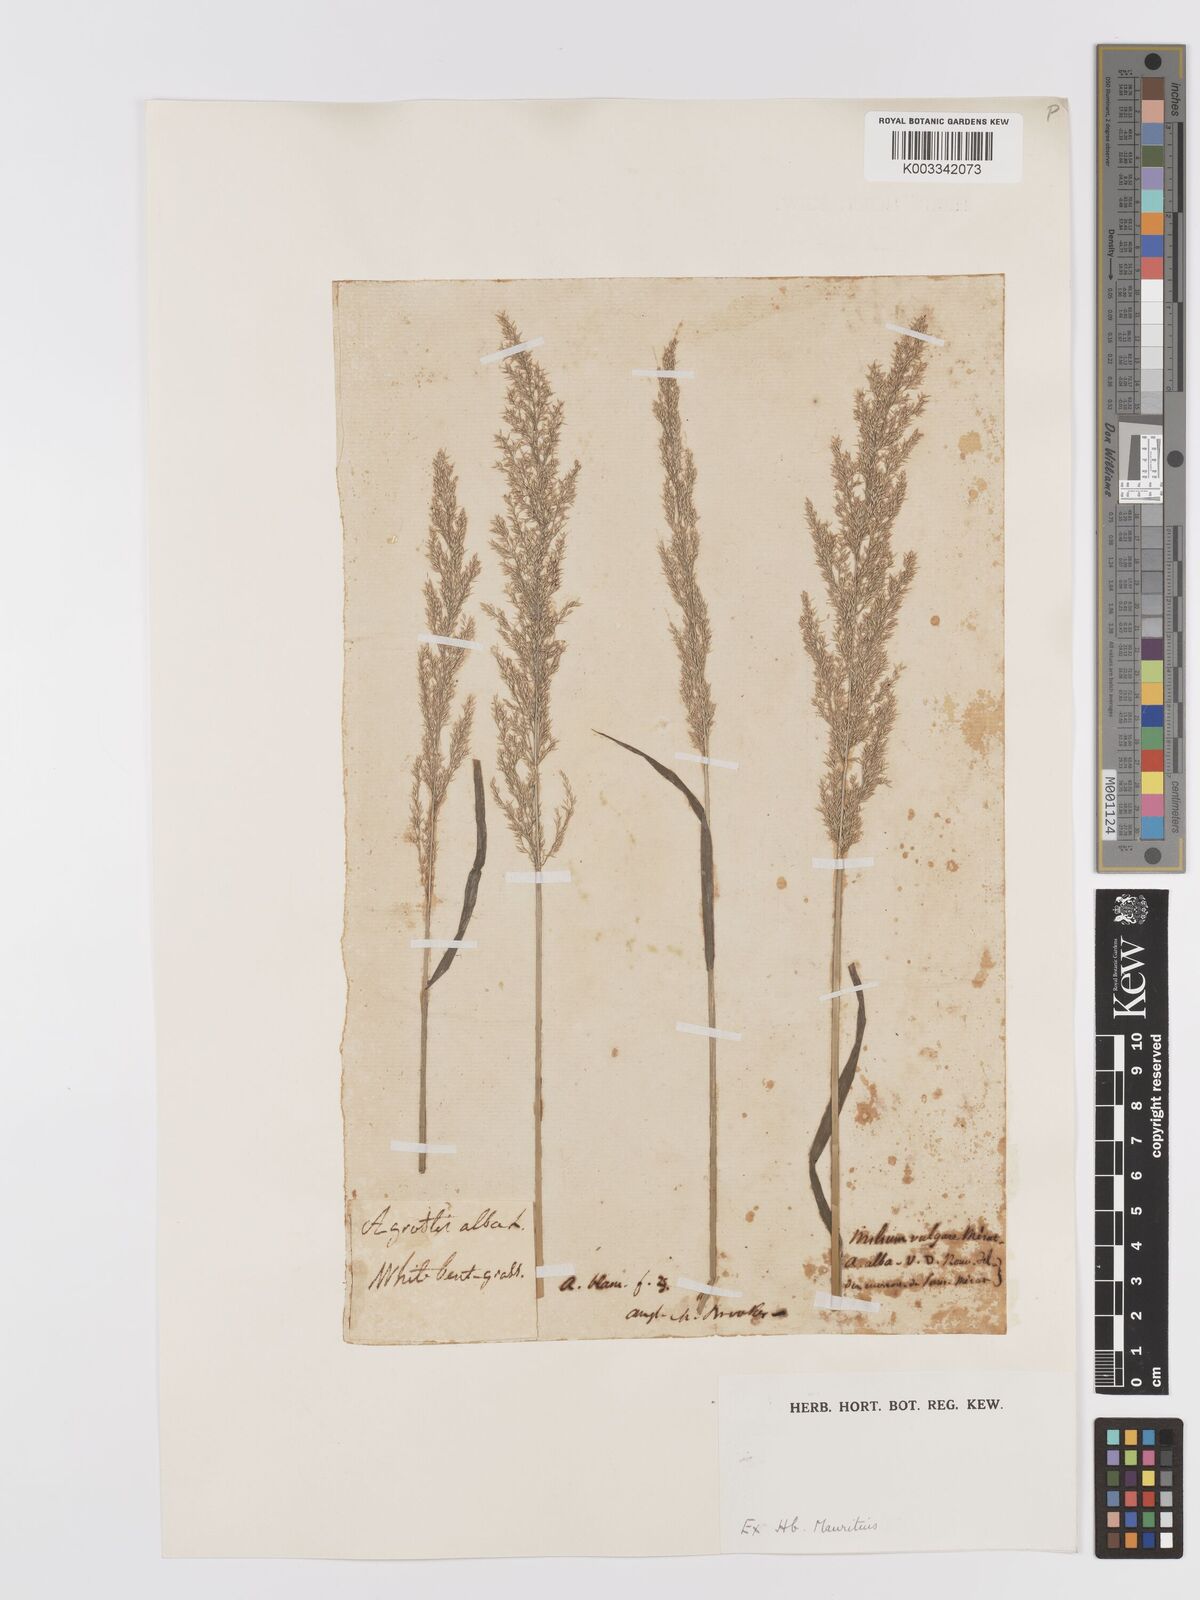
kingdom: Plantae
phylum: Tracheophyta
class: Liliopsida
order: Poales
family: Poaceae
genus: Agrostis
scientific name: Agrostis stolonifera
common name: Creeping bentgrass
